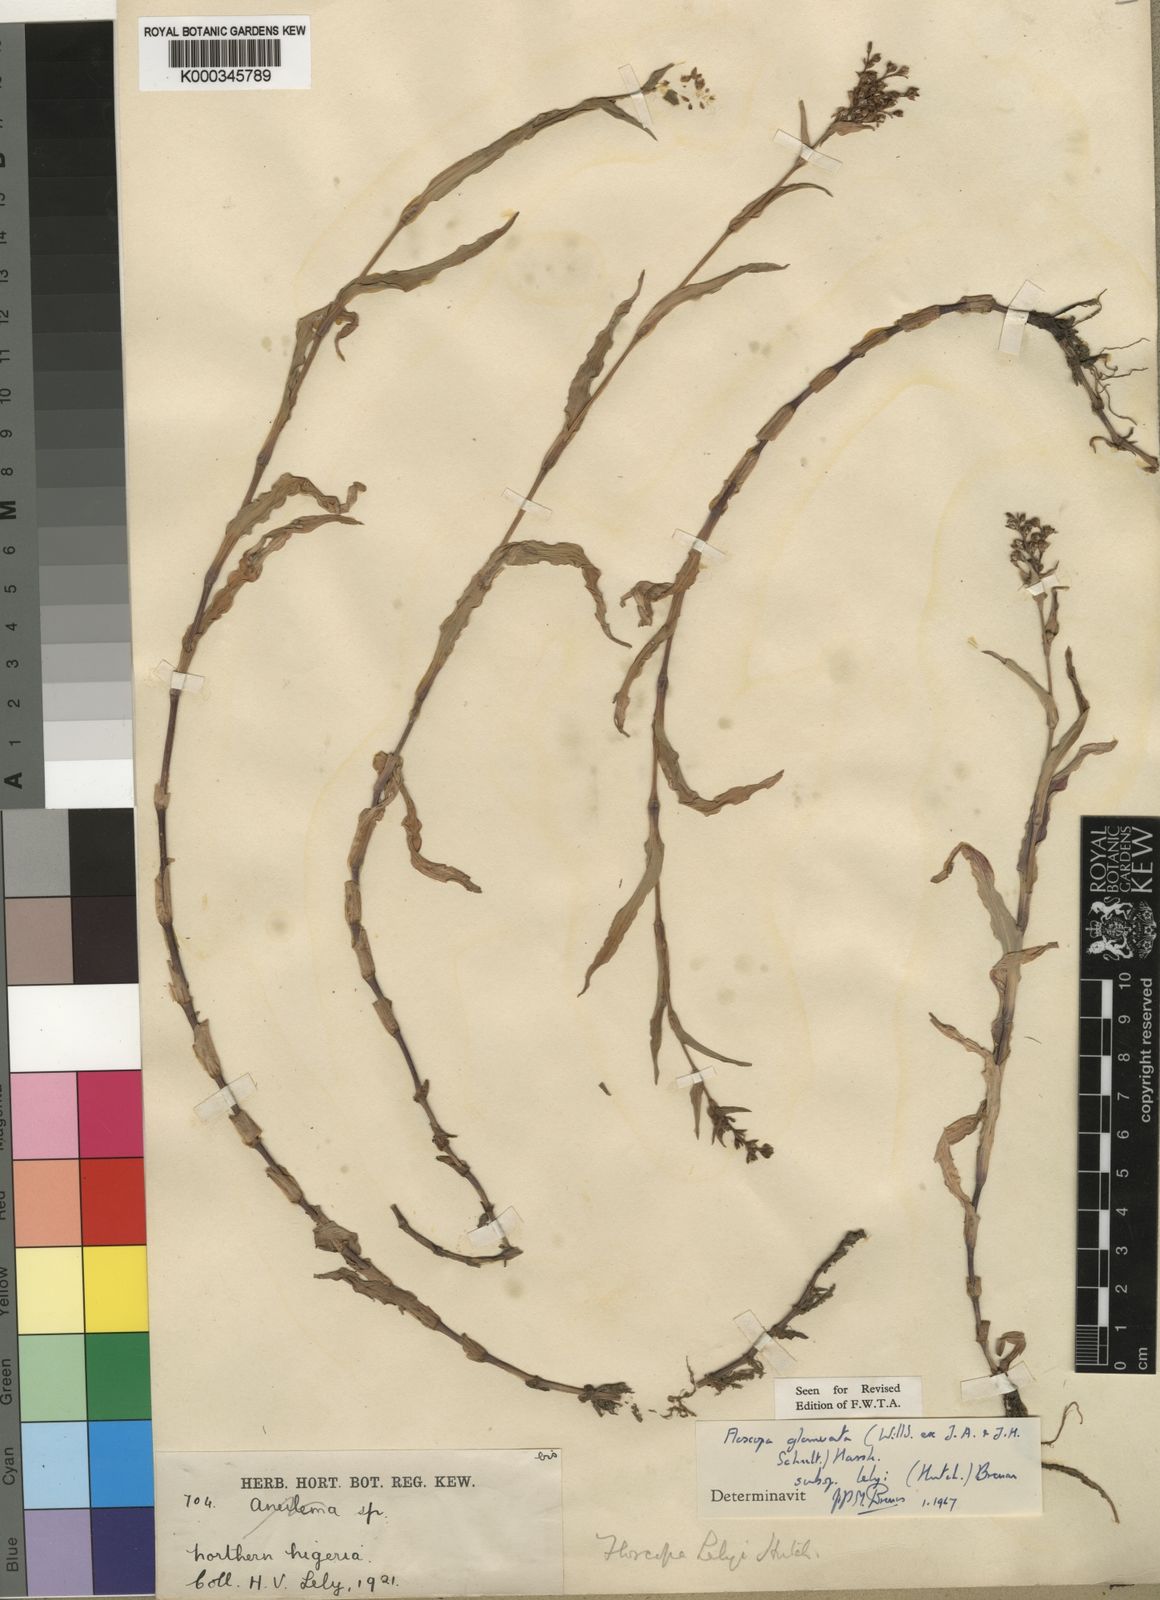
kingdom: Plantae
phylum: Tracheophyta
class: Liliopsida
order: Commelinales
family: Commelinaceae
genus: Floscopa
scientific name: Floscopa glomerata
